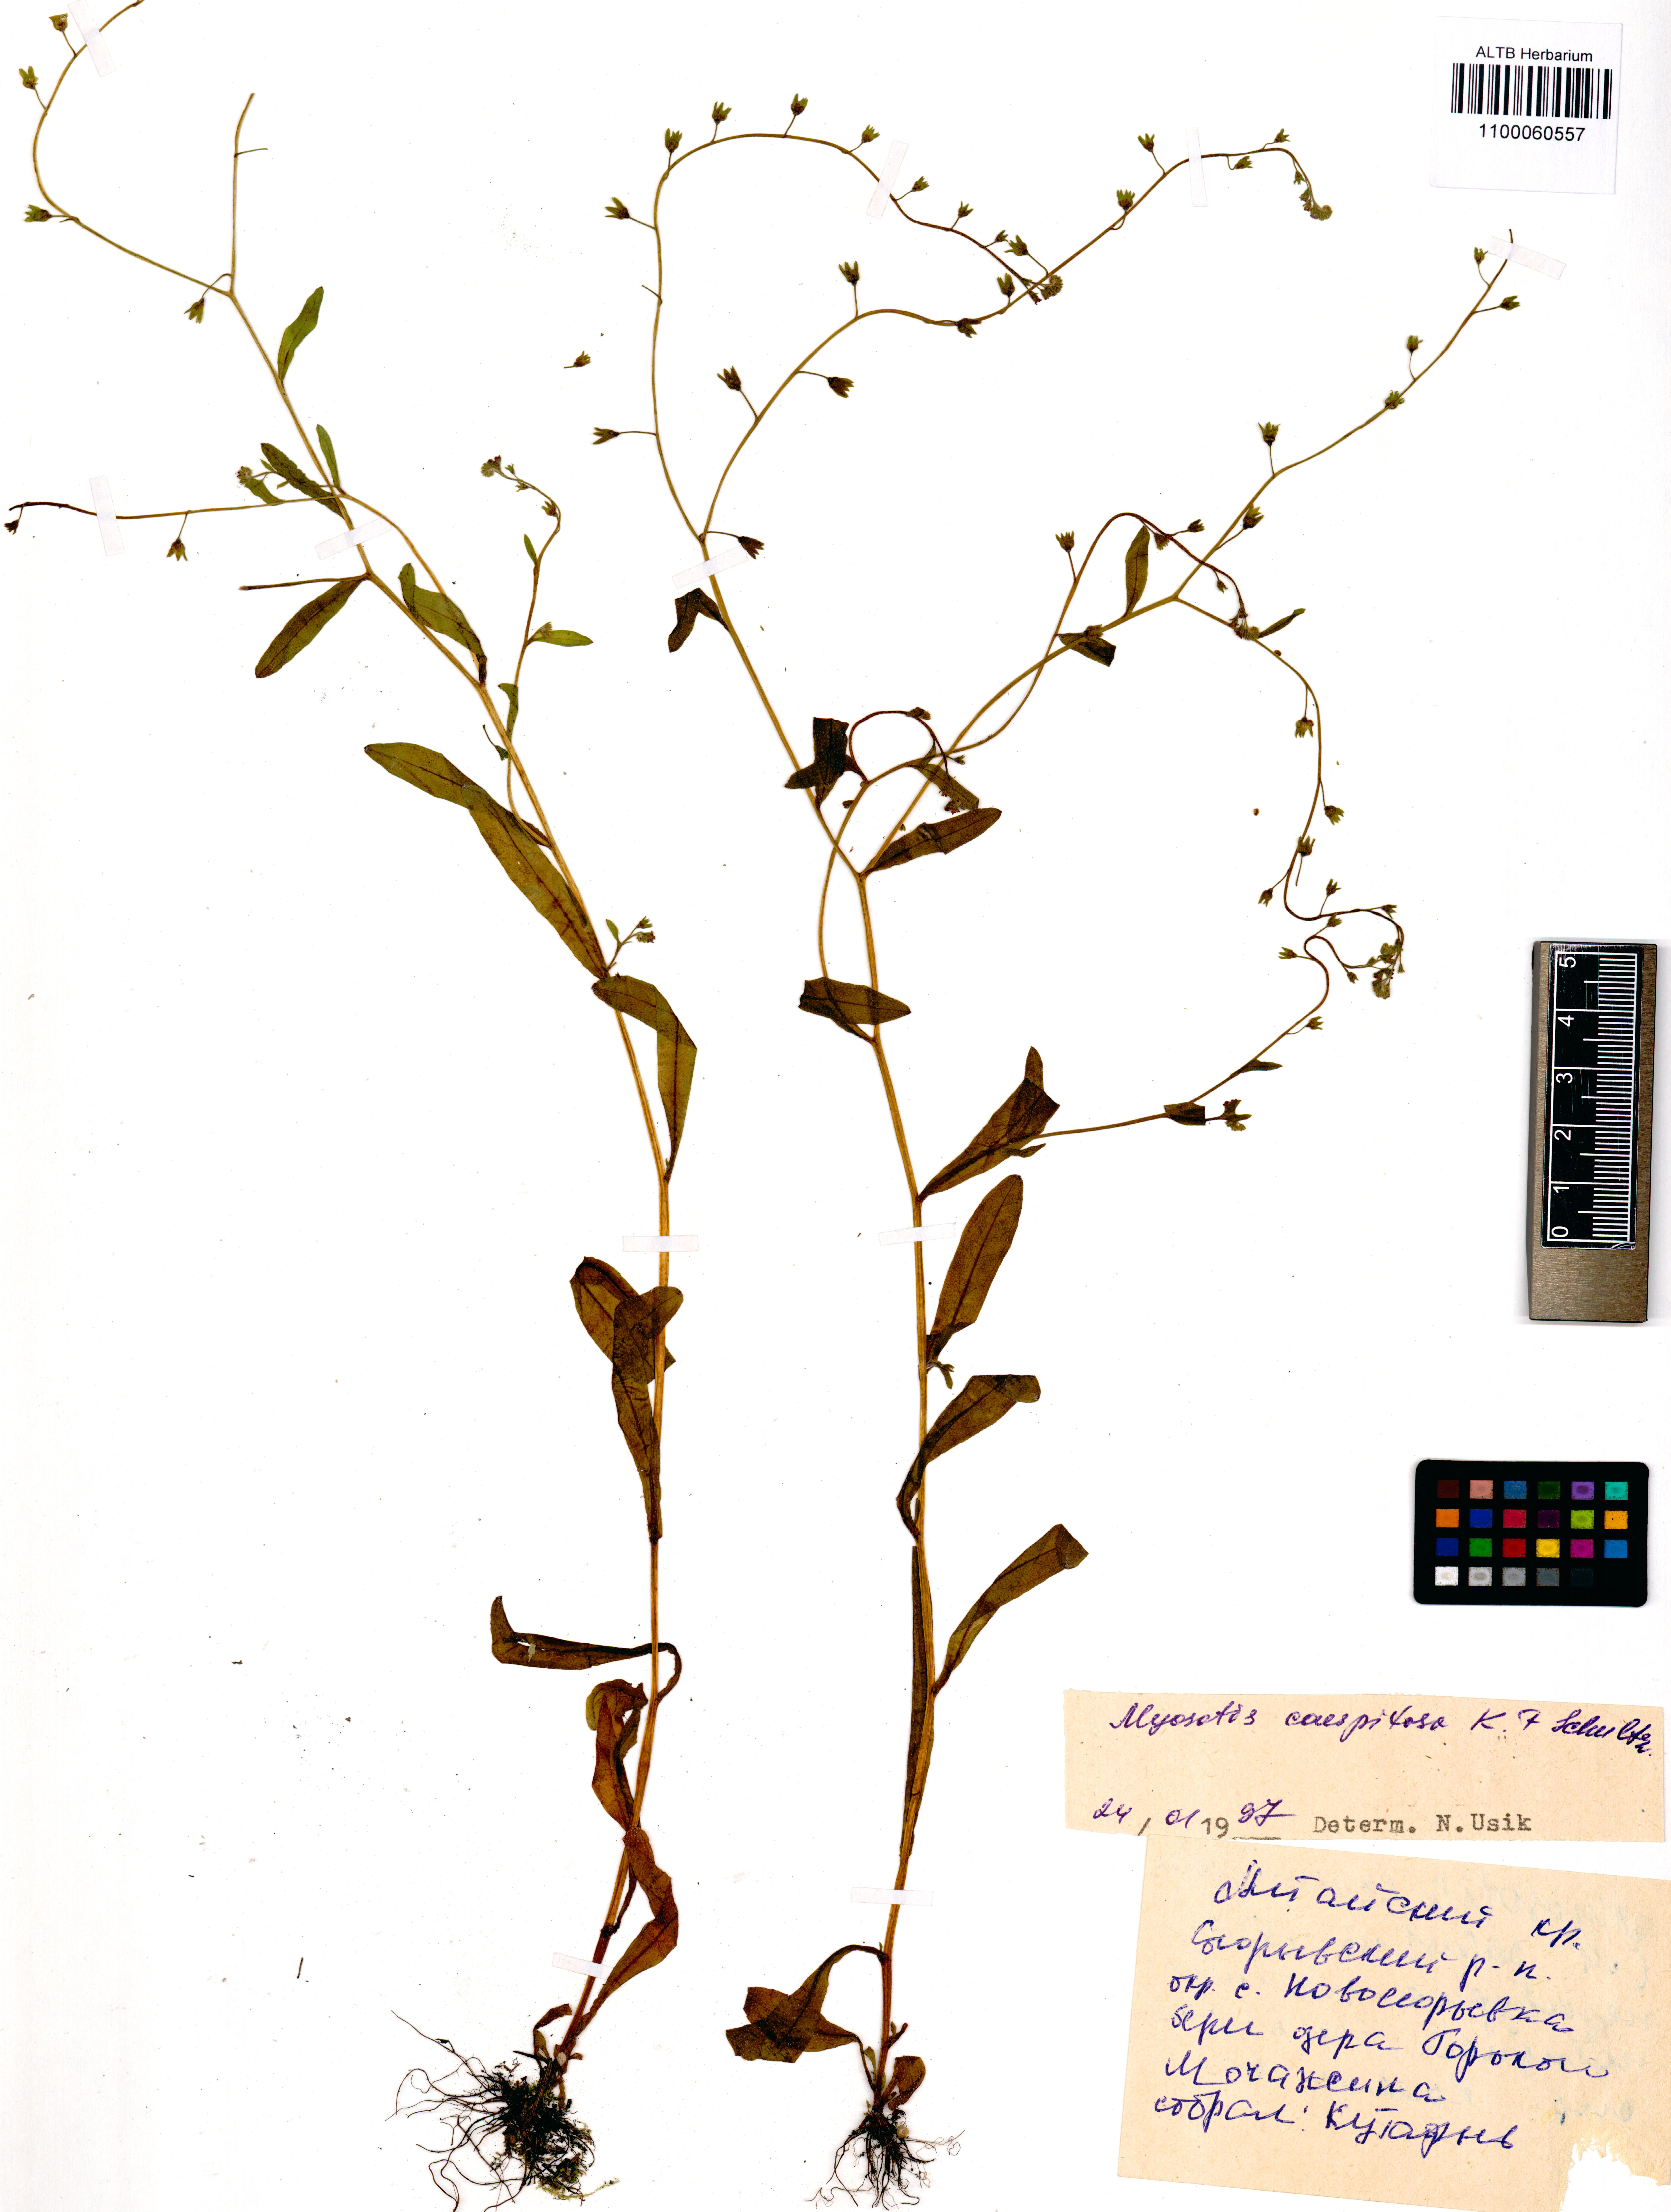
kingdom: Plantae
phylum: Tracheophyta
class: Magnoliopsida
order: Boraginales
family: Boraginaceae
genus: Myosotis
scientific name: Myosotis laxa
